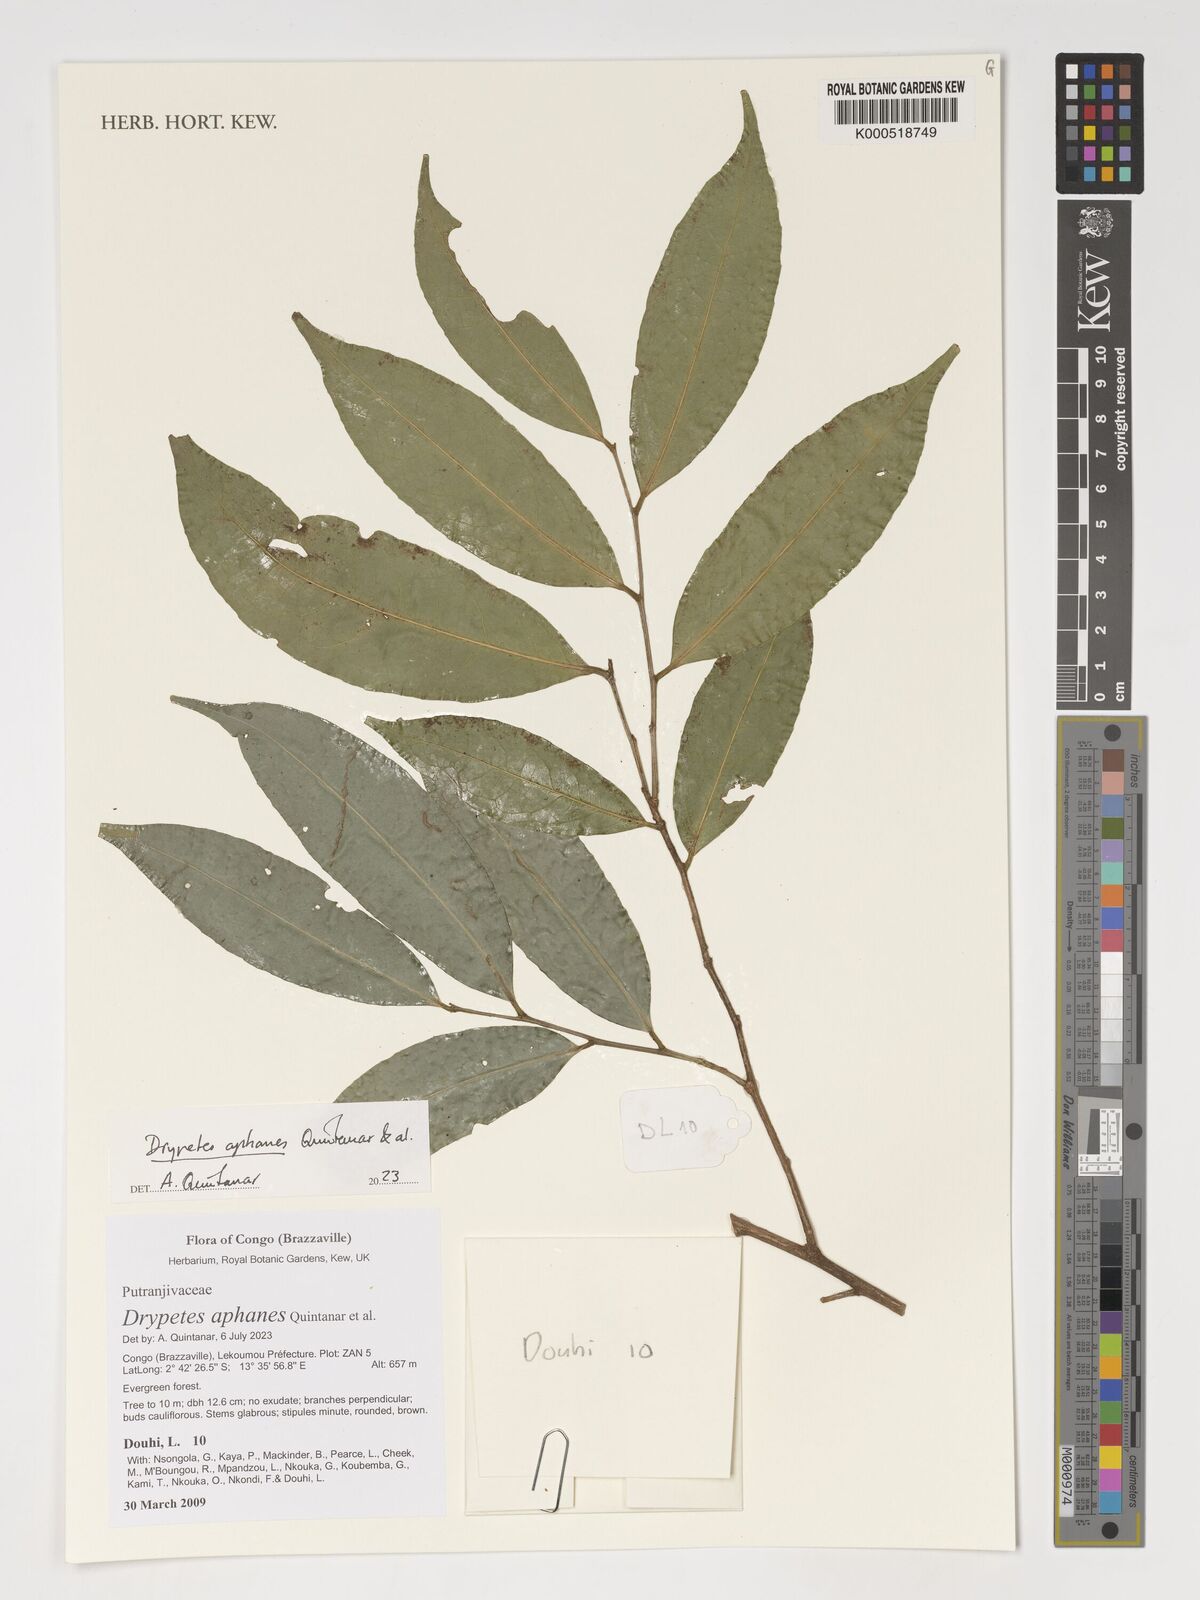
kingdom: Plantae
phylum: Tracheophyta
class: Magnoliopsida
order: Malpighiales
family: Putranjivaceae
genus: Drypetes
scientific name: Drypetes
